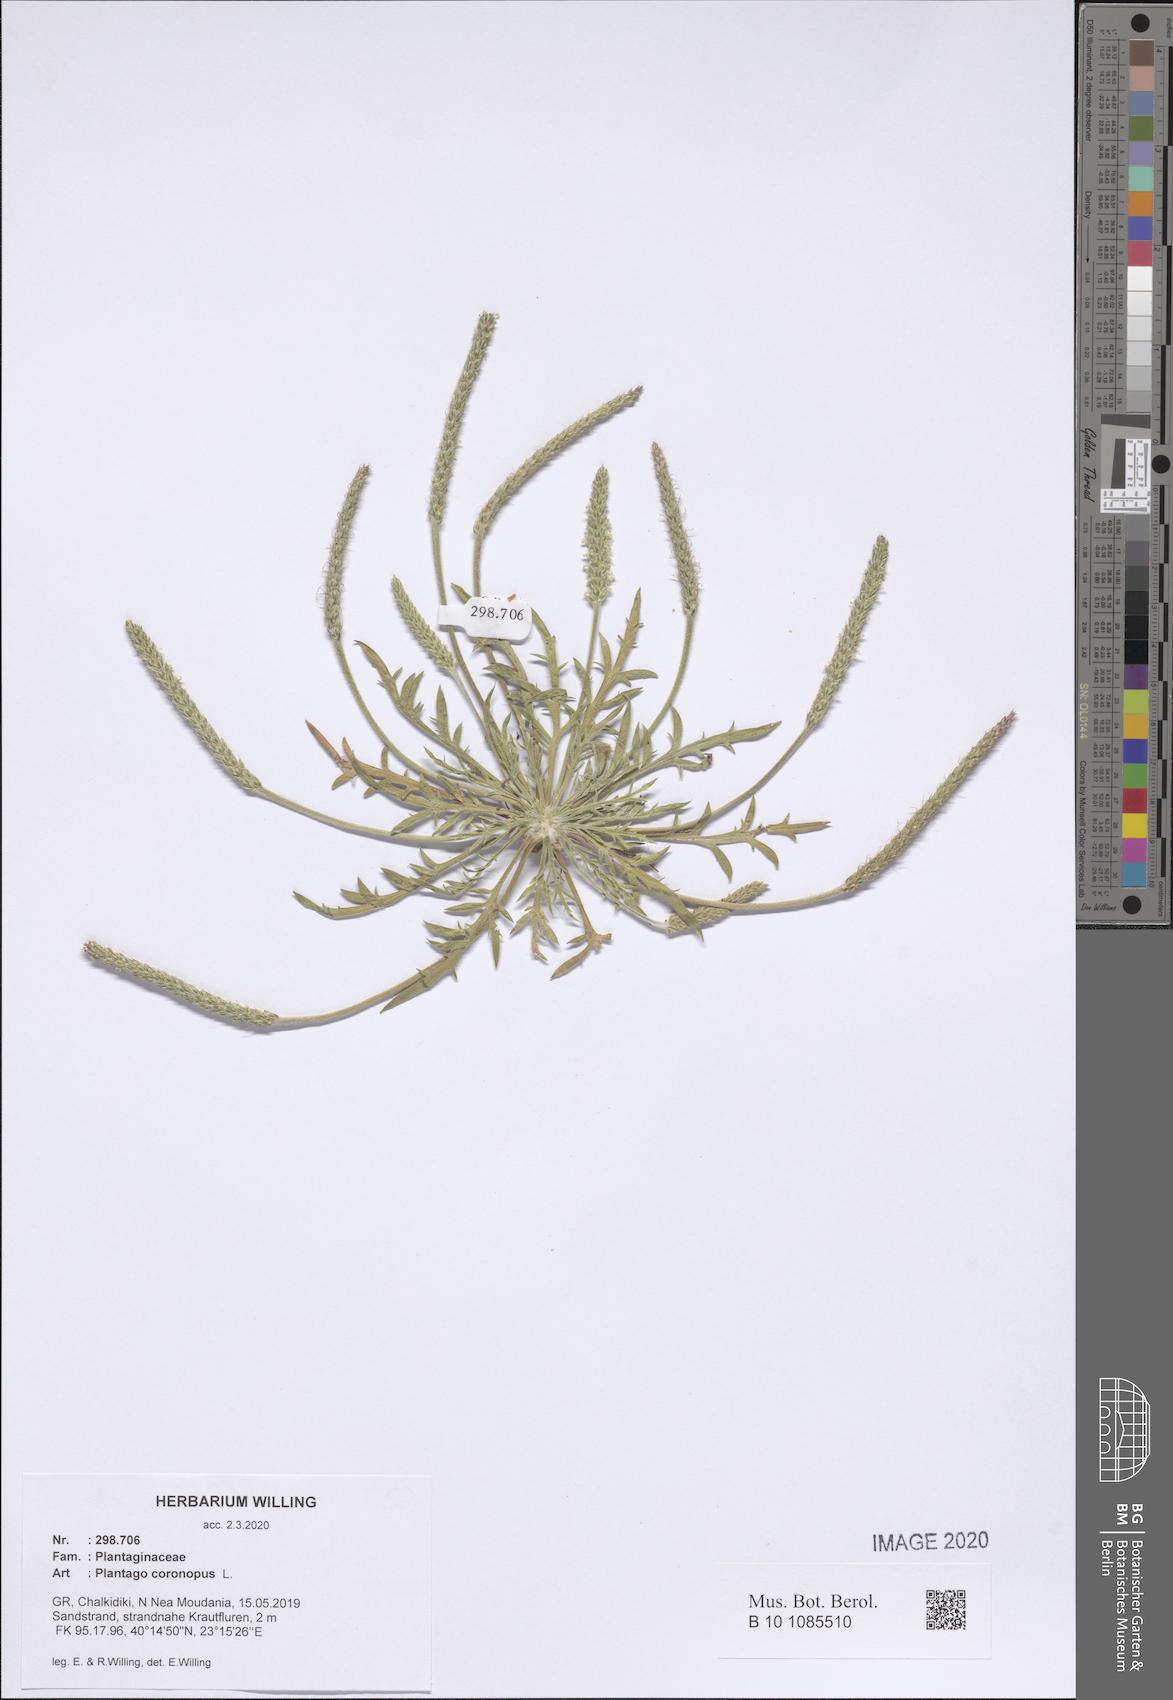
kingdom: Plantae
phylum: Tracheophyta
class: Magnoliopsida
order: Lamiales
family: Plantaginaceae
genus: Plantago
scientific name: Plantago coronopus
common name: Buck's-horn plantain
